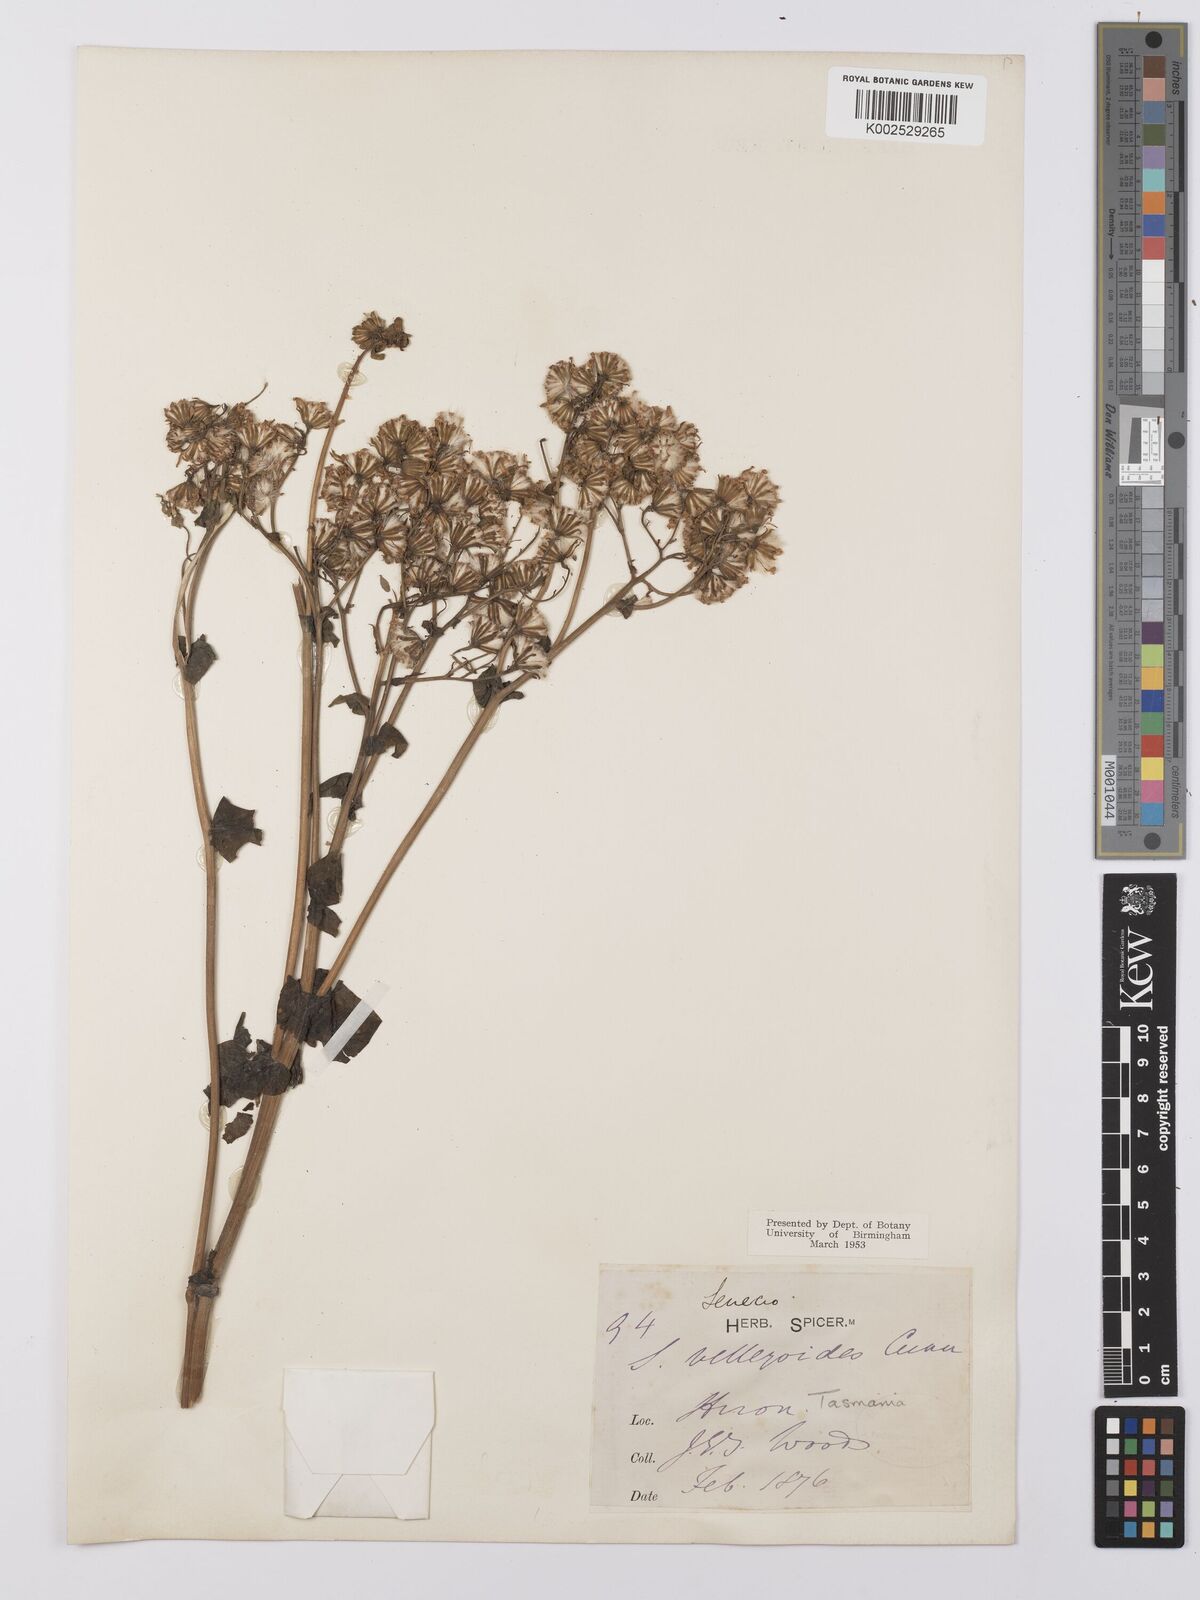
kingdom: Plantae
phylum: Tracheophyta
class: Magnoliopsida
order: Asterales
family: Asteraceae
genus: Lordhowea
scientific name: Lordhowea velleioides
